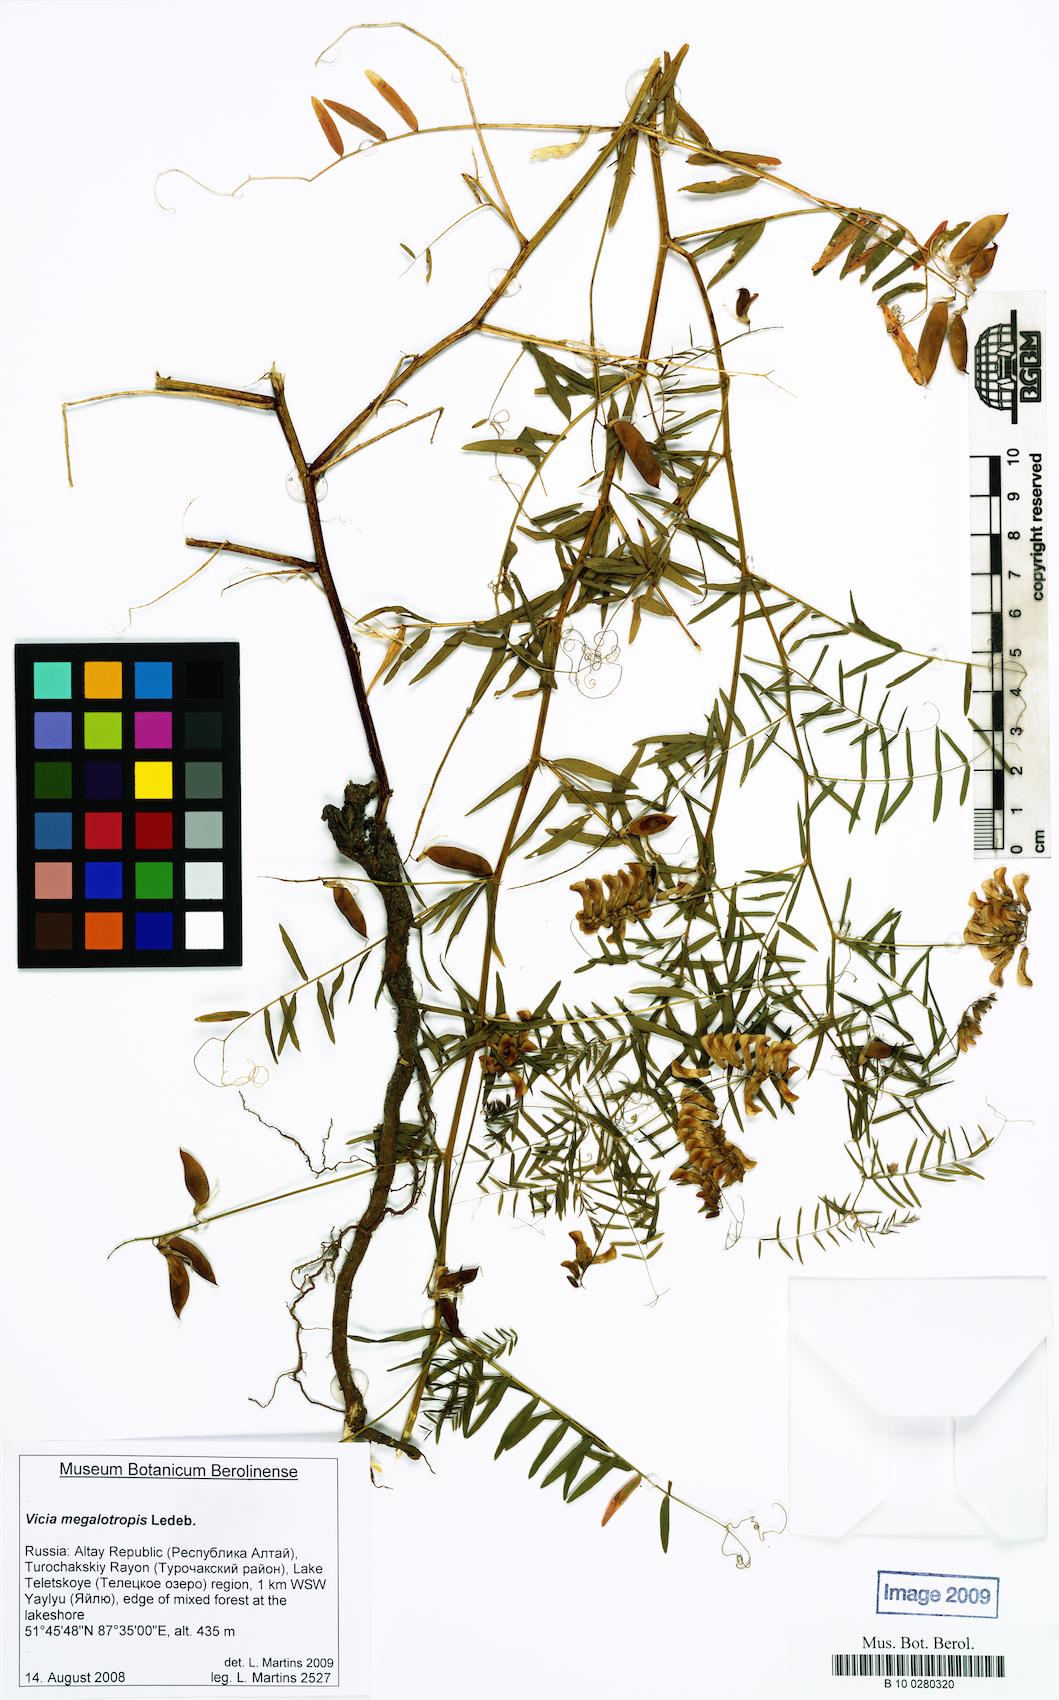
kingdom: Plantae
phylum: Tracheophyta
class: Magnoliopsida
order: Fabales
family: Fabaceae
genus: Vicia
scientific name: Vicia
